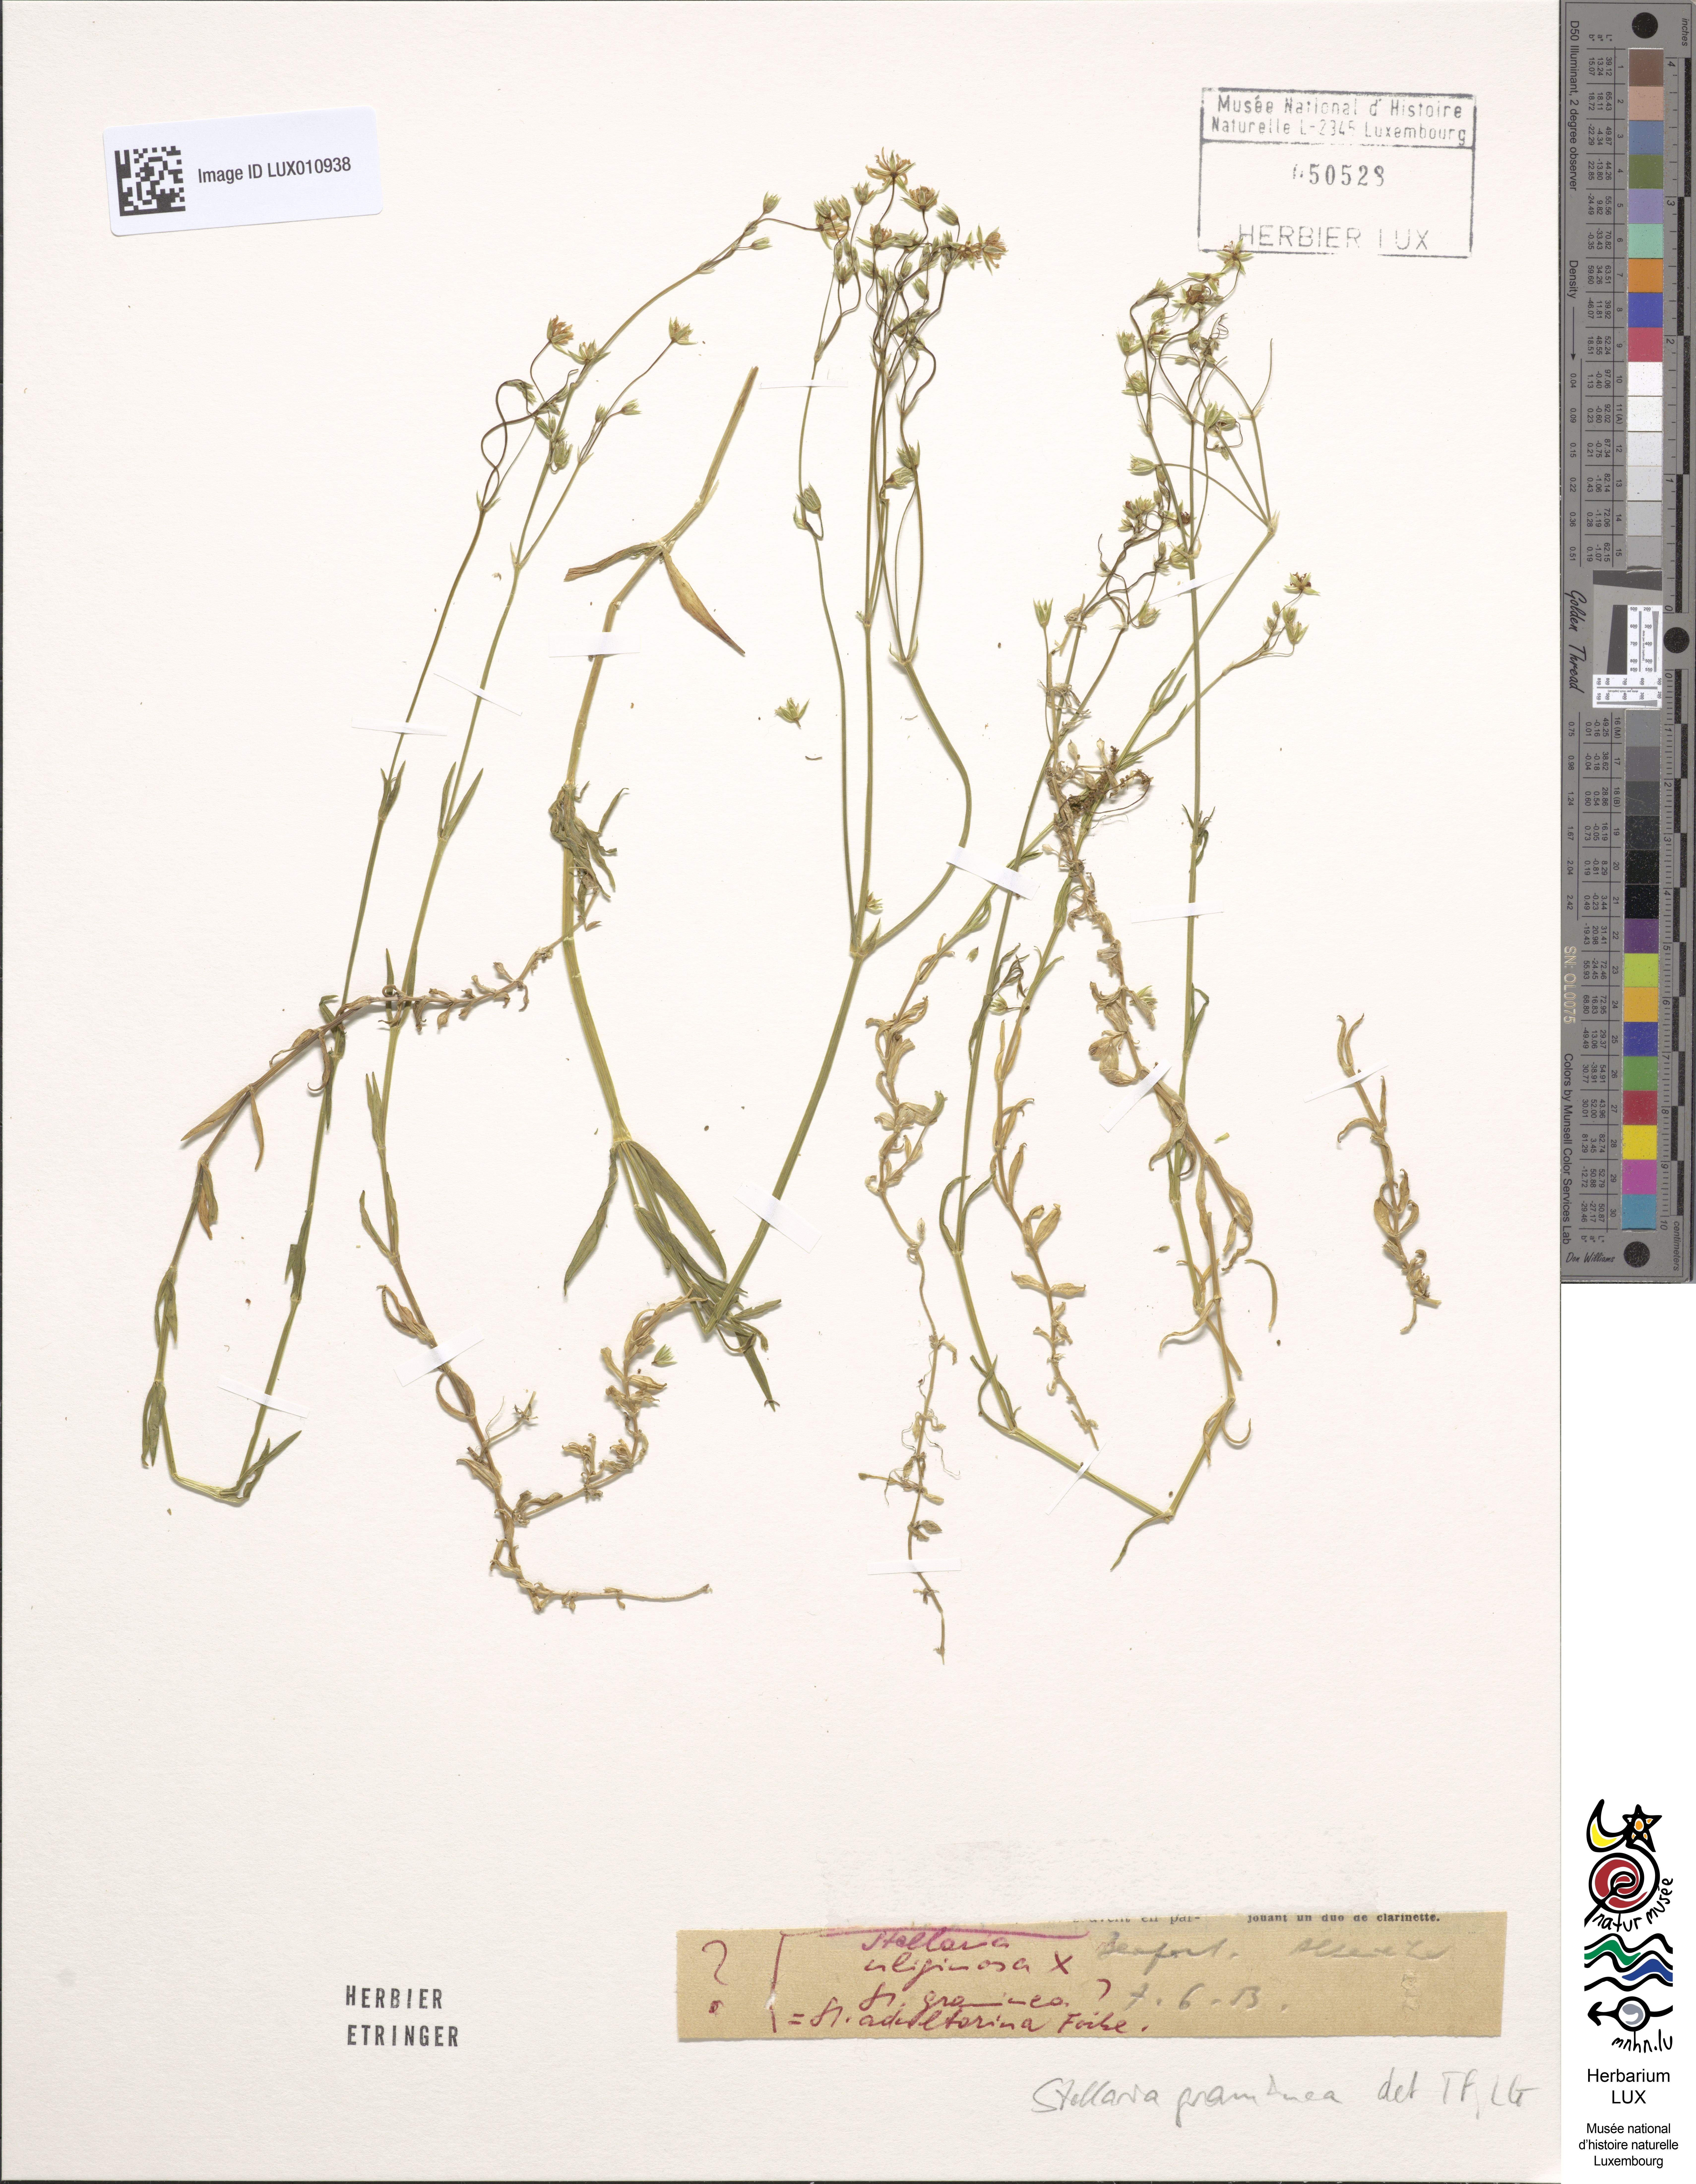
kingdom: Plantae
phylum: Tracheophyta
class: Magnoliopsida
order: Caryophyllales
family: Caryophyllaceae
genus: Stellaria
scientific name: Stellaria graminea
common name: Grass-like starwort
